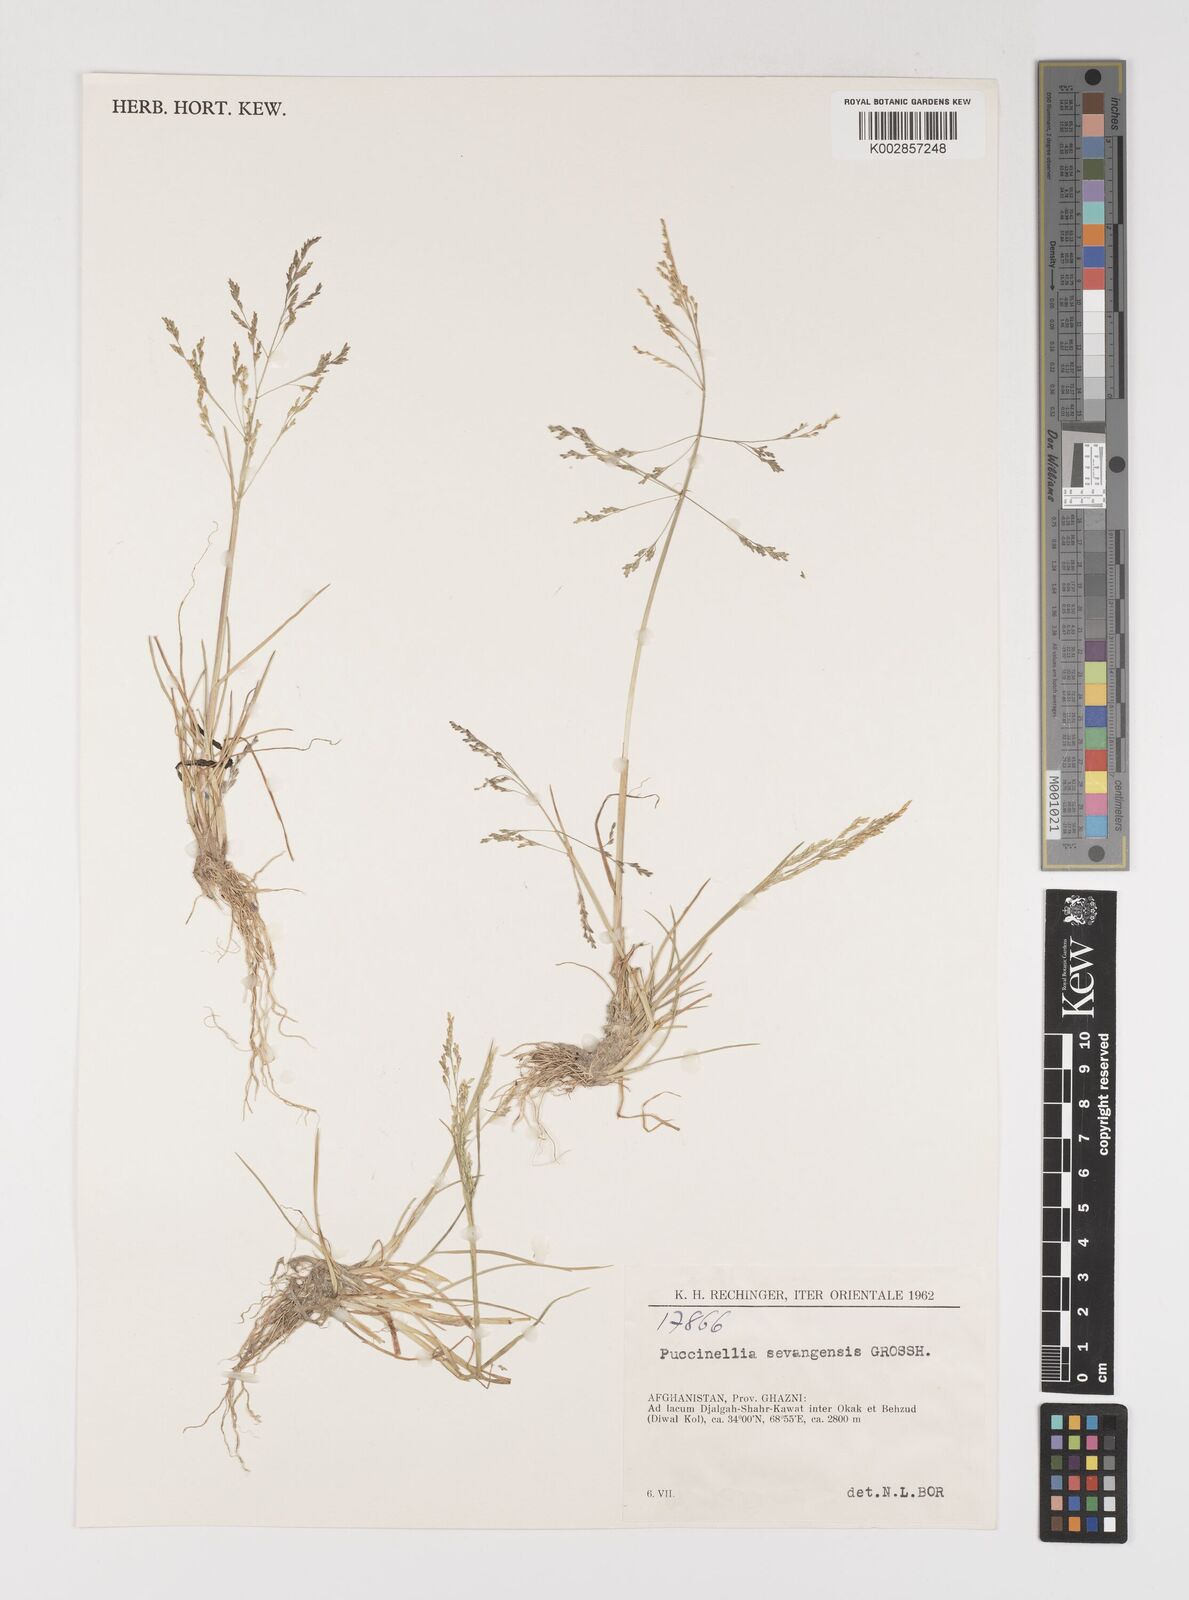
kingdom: Plantae
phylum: Tracheophyta
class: Liliopsida
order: Poales
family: Poaceae
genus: Puccinellia
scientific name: Puccinellia distans
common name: Weeping alkaligrass
